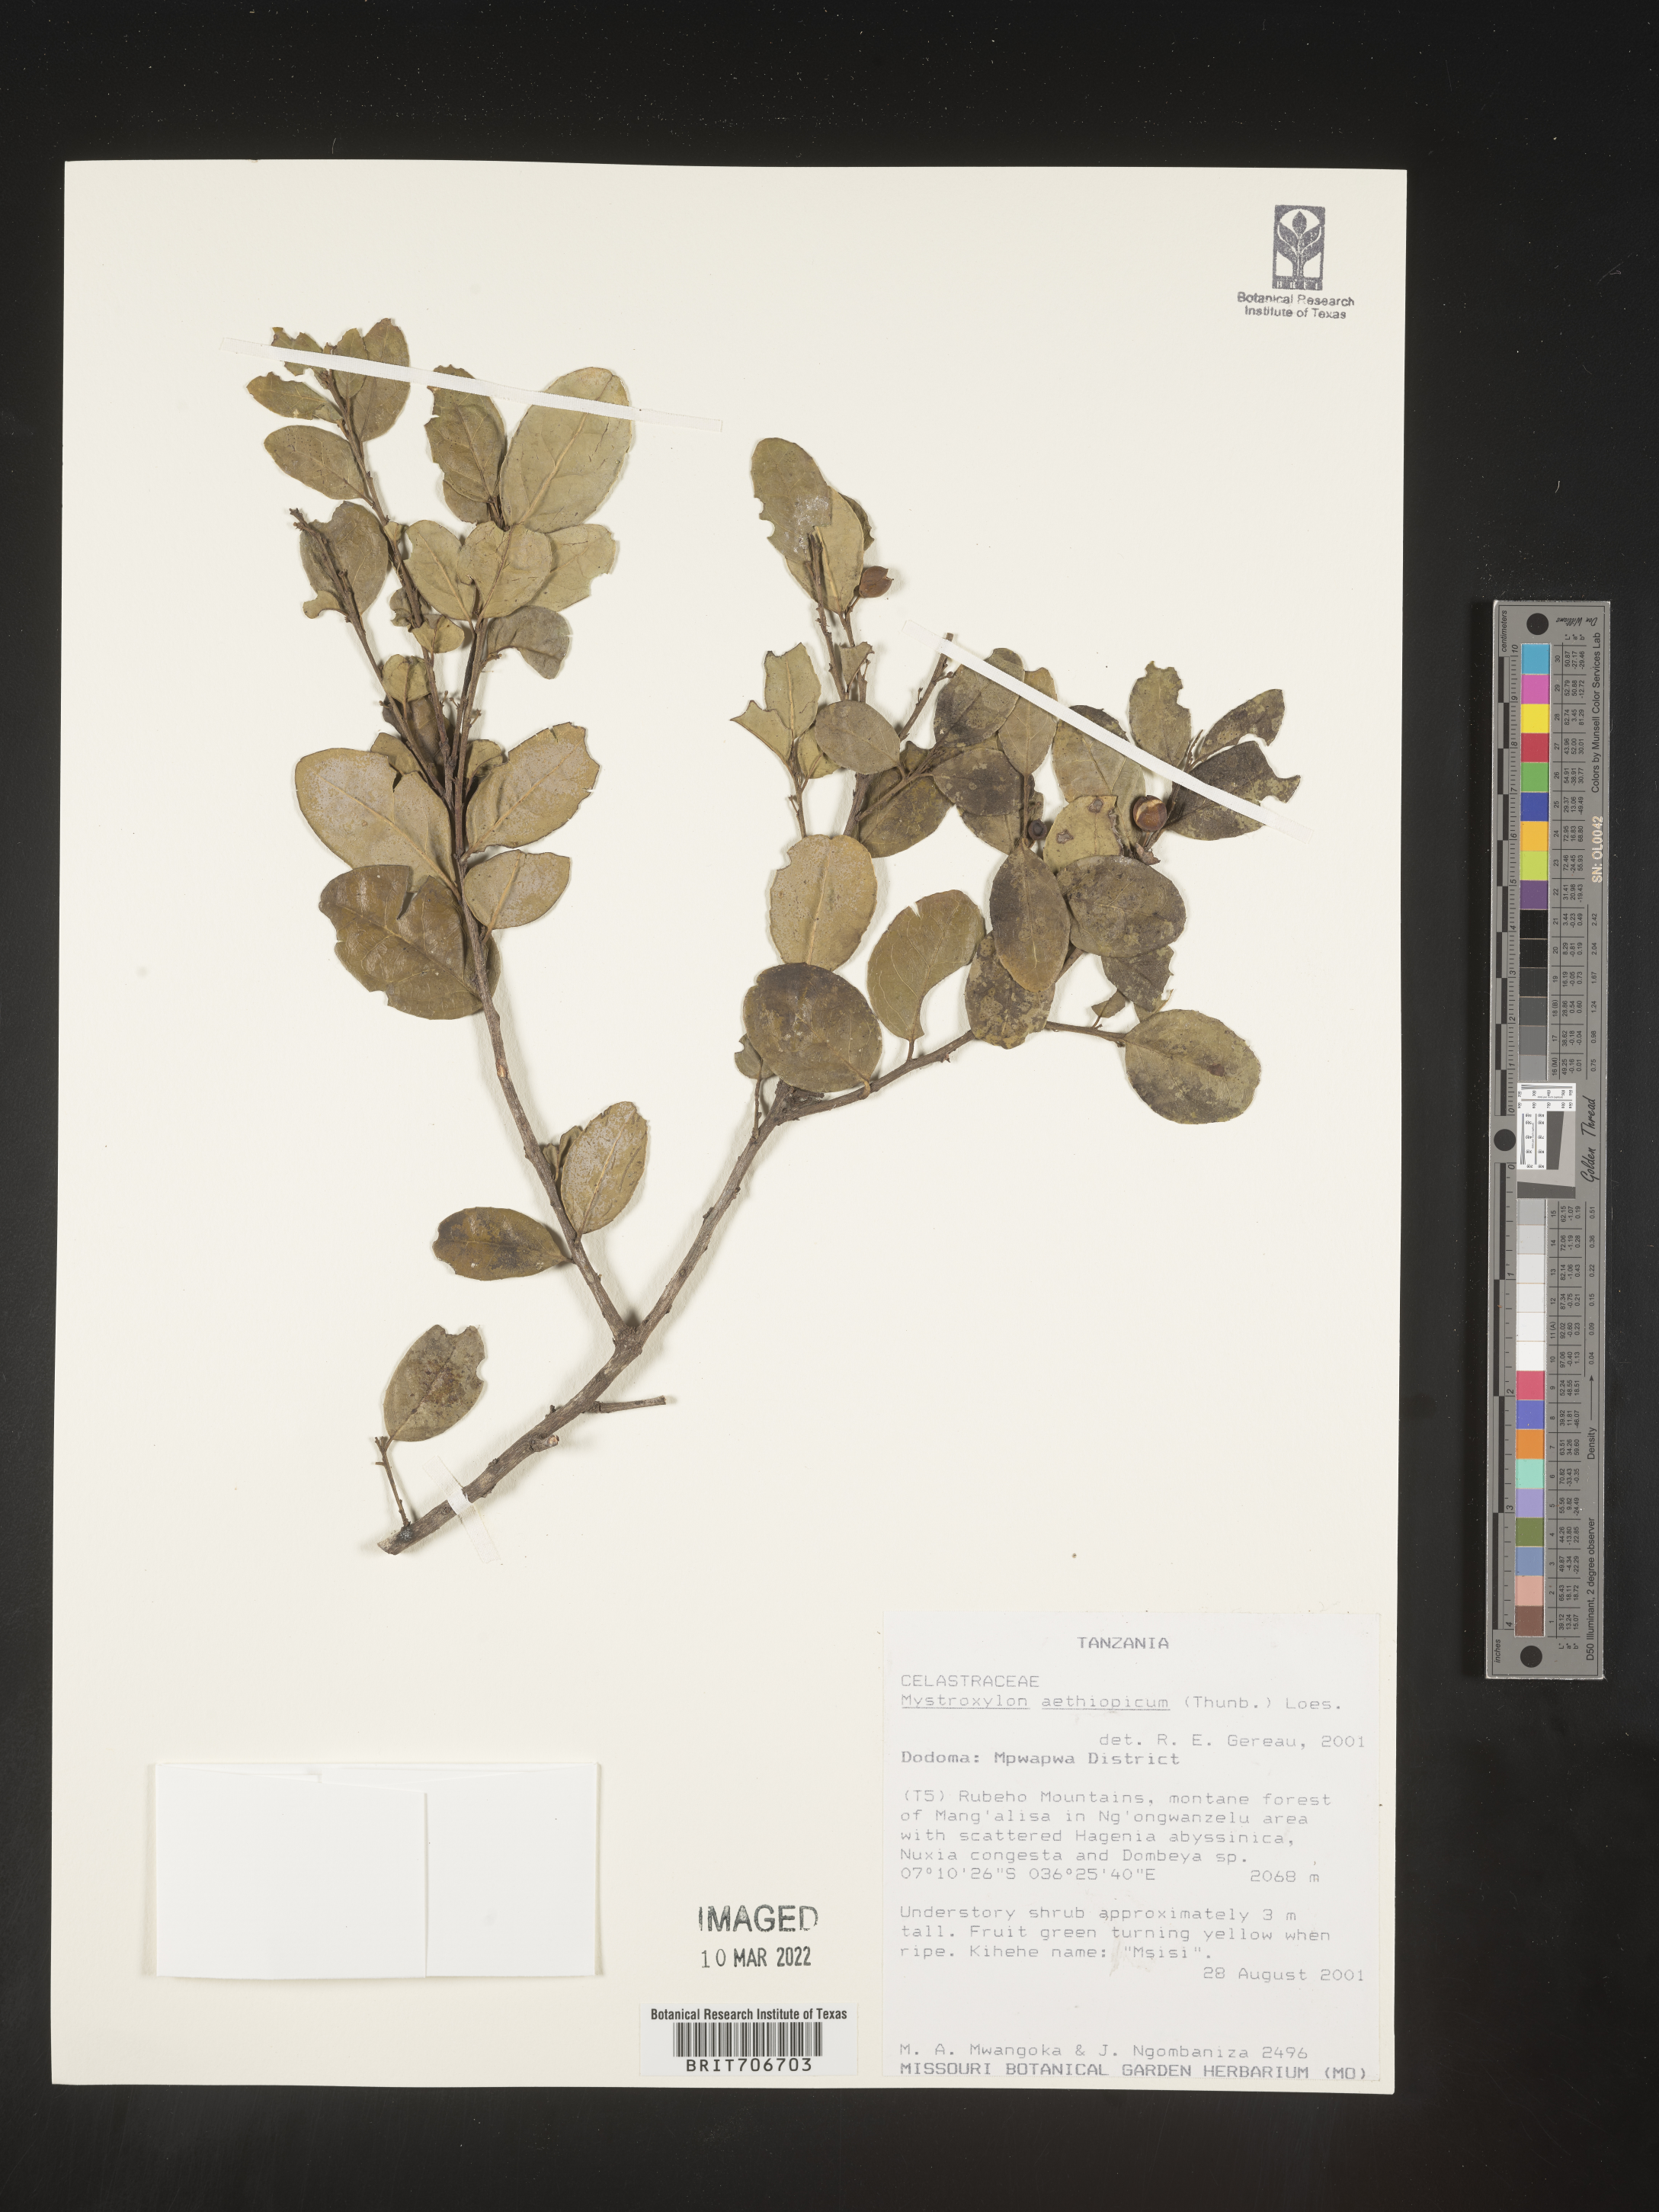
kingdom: Plantae
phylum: Tracheophyta
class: Magnoliopsida
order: Celastrales
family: Celastraceae
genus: Mystroxylon
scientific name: Mystroxylon
